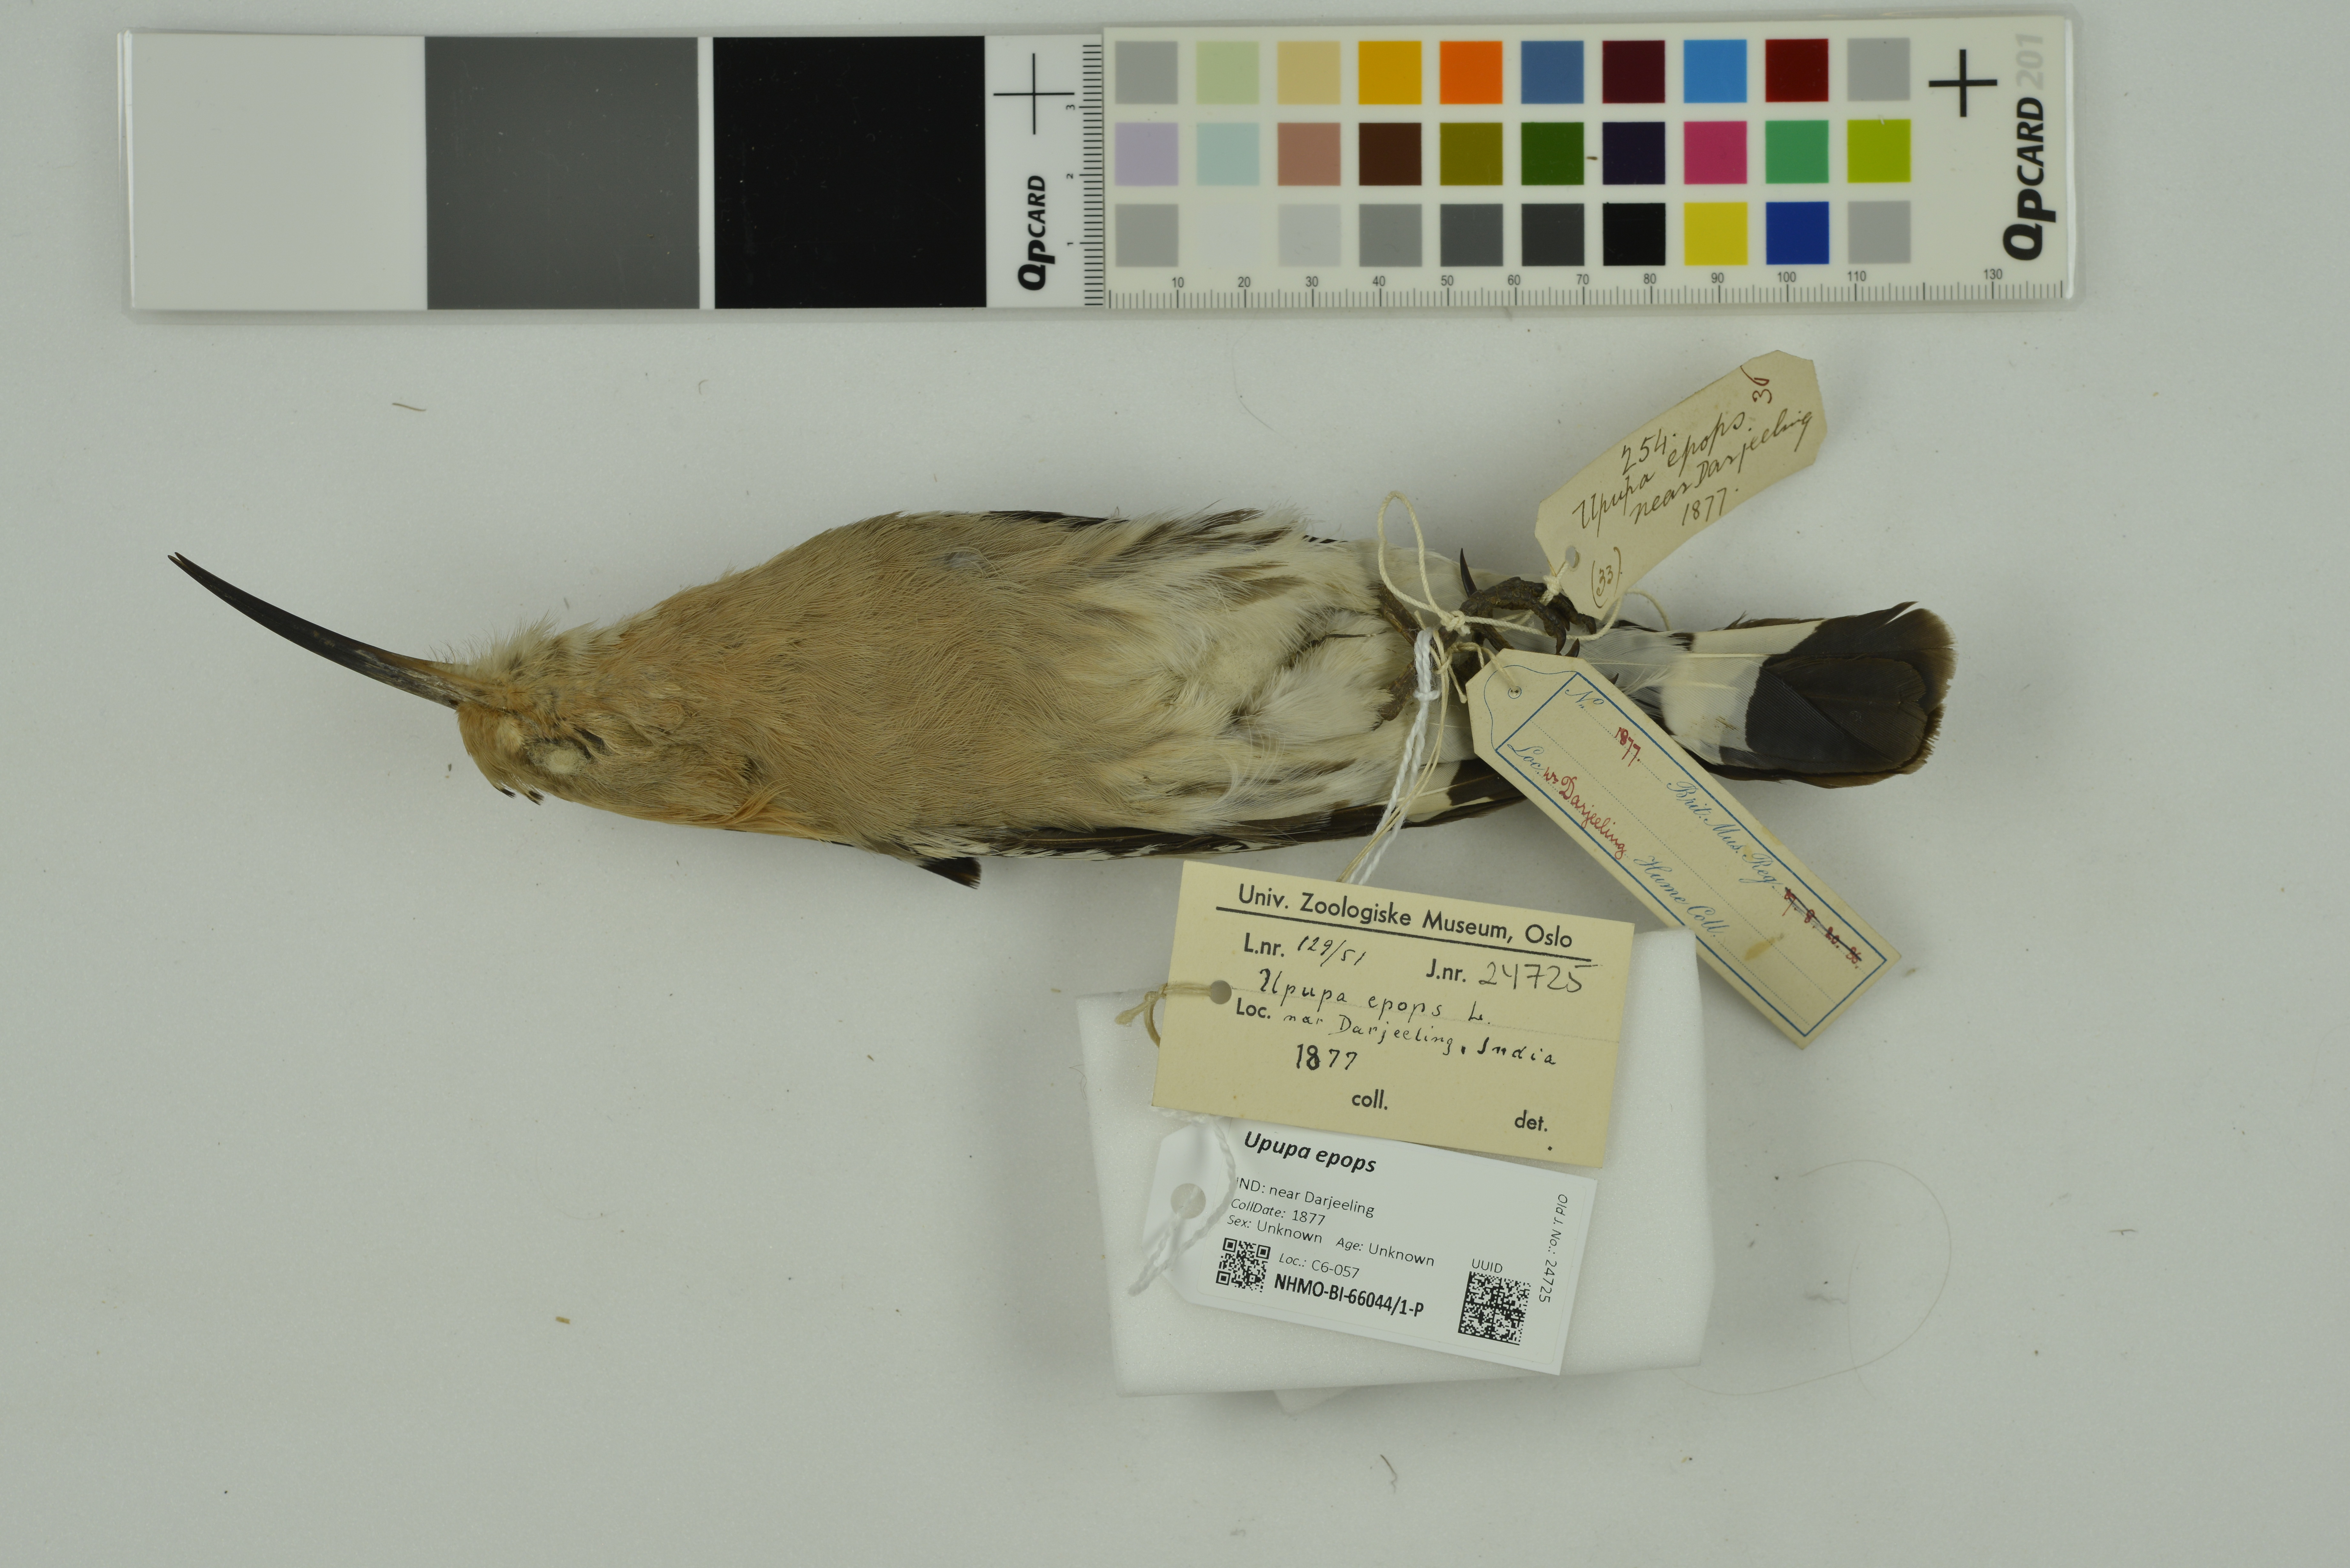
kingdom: Animalia
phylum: Chordata
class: Aves
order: Bucerotiformes
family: Upupidae
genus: Upupa
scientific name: Upupa epops
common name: Eurasian hoopoe
